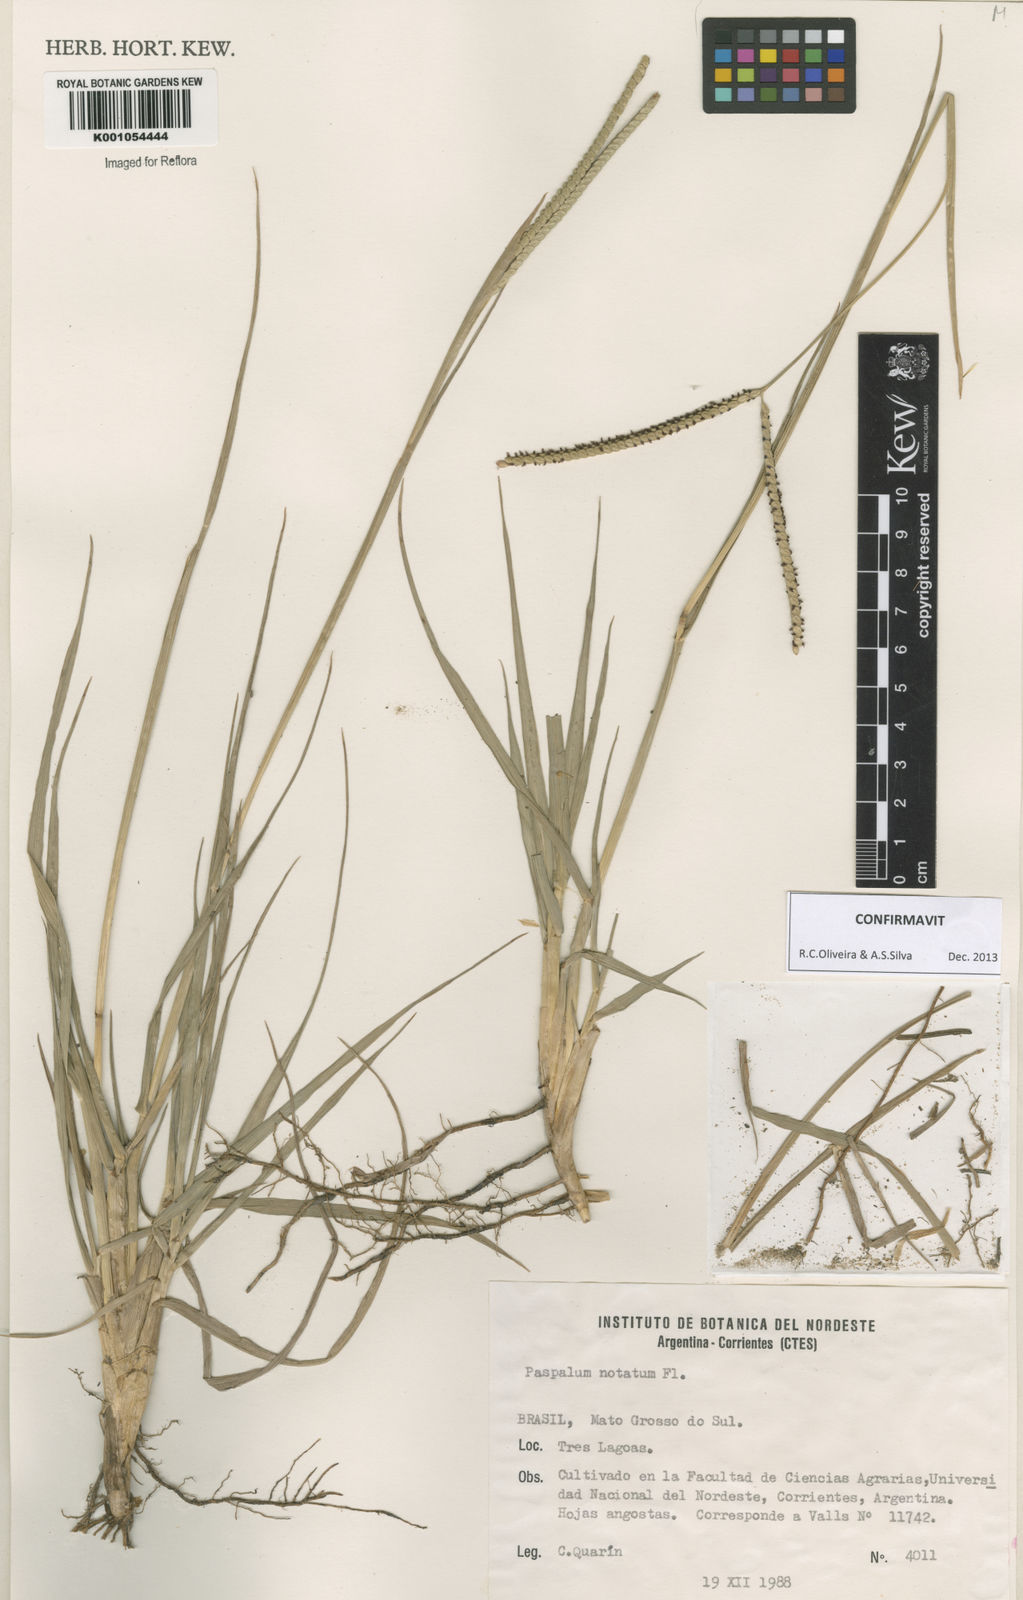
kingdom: Plantae
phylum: Tracheophyta
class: Liliopsida
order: Poales
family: Poaceae
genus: Paspalum
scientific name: Paspalum
